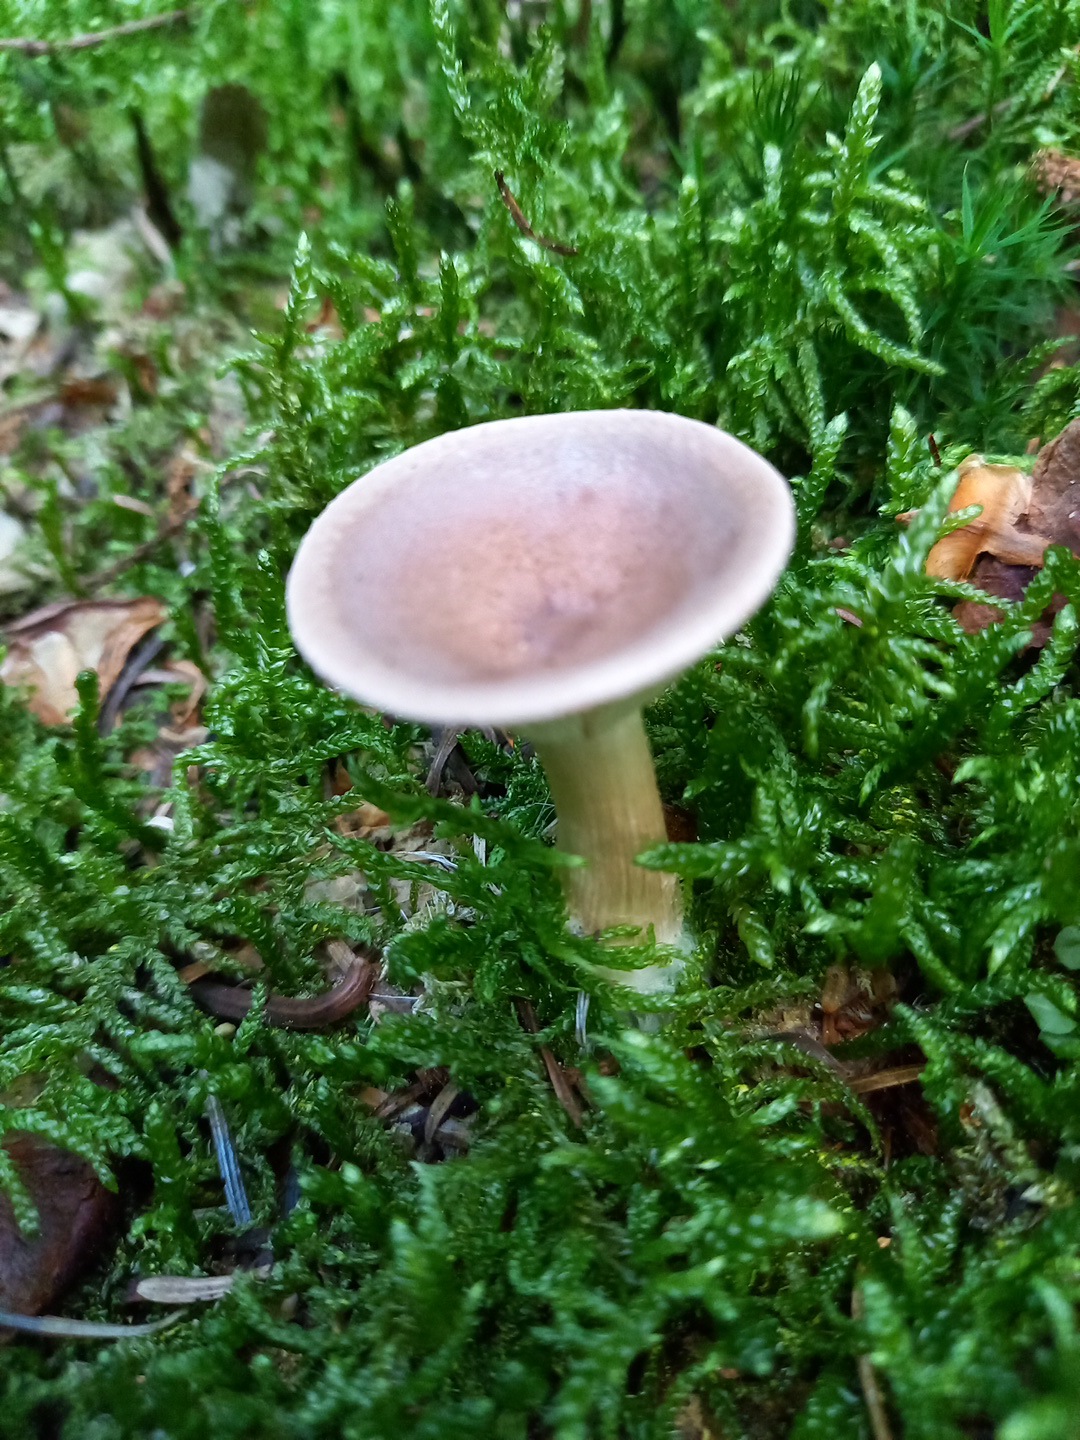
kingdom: Fungi
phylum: Basidiomycota
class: Agaricomycetes
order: Agaricales
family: Hygrophoraceae
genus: Ampulloclitocybe
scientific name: Ampulloclitocybe clavipes
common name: køllefod
